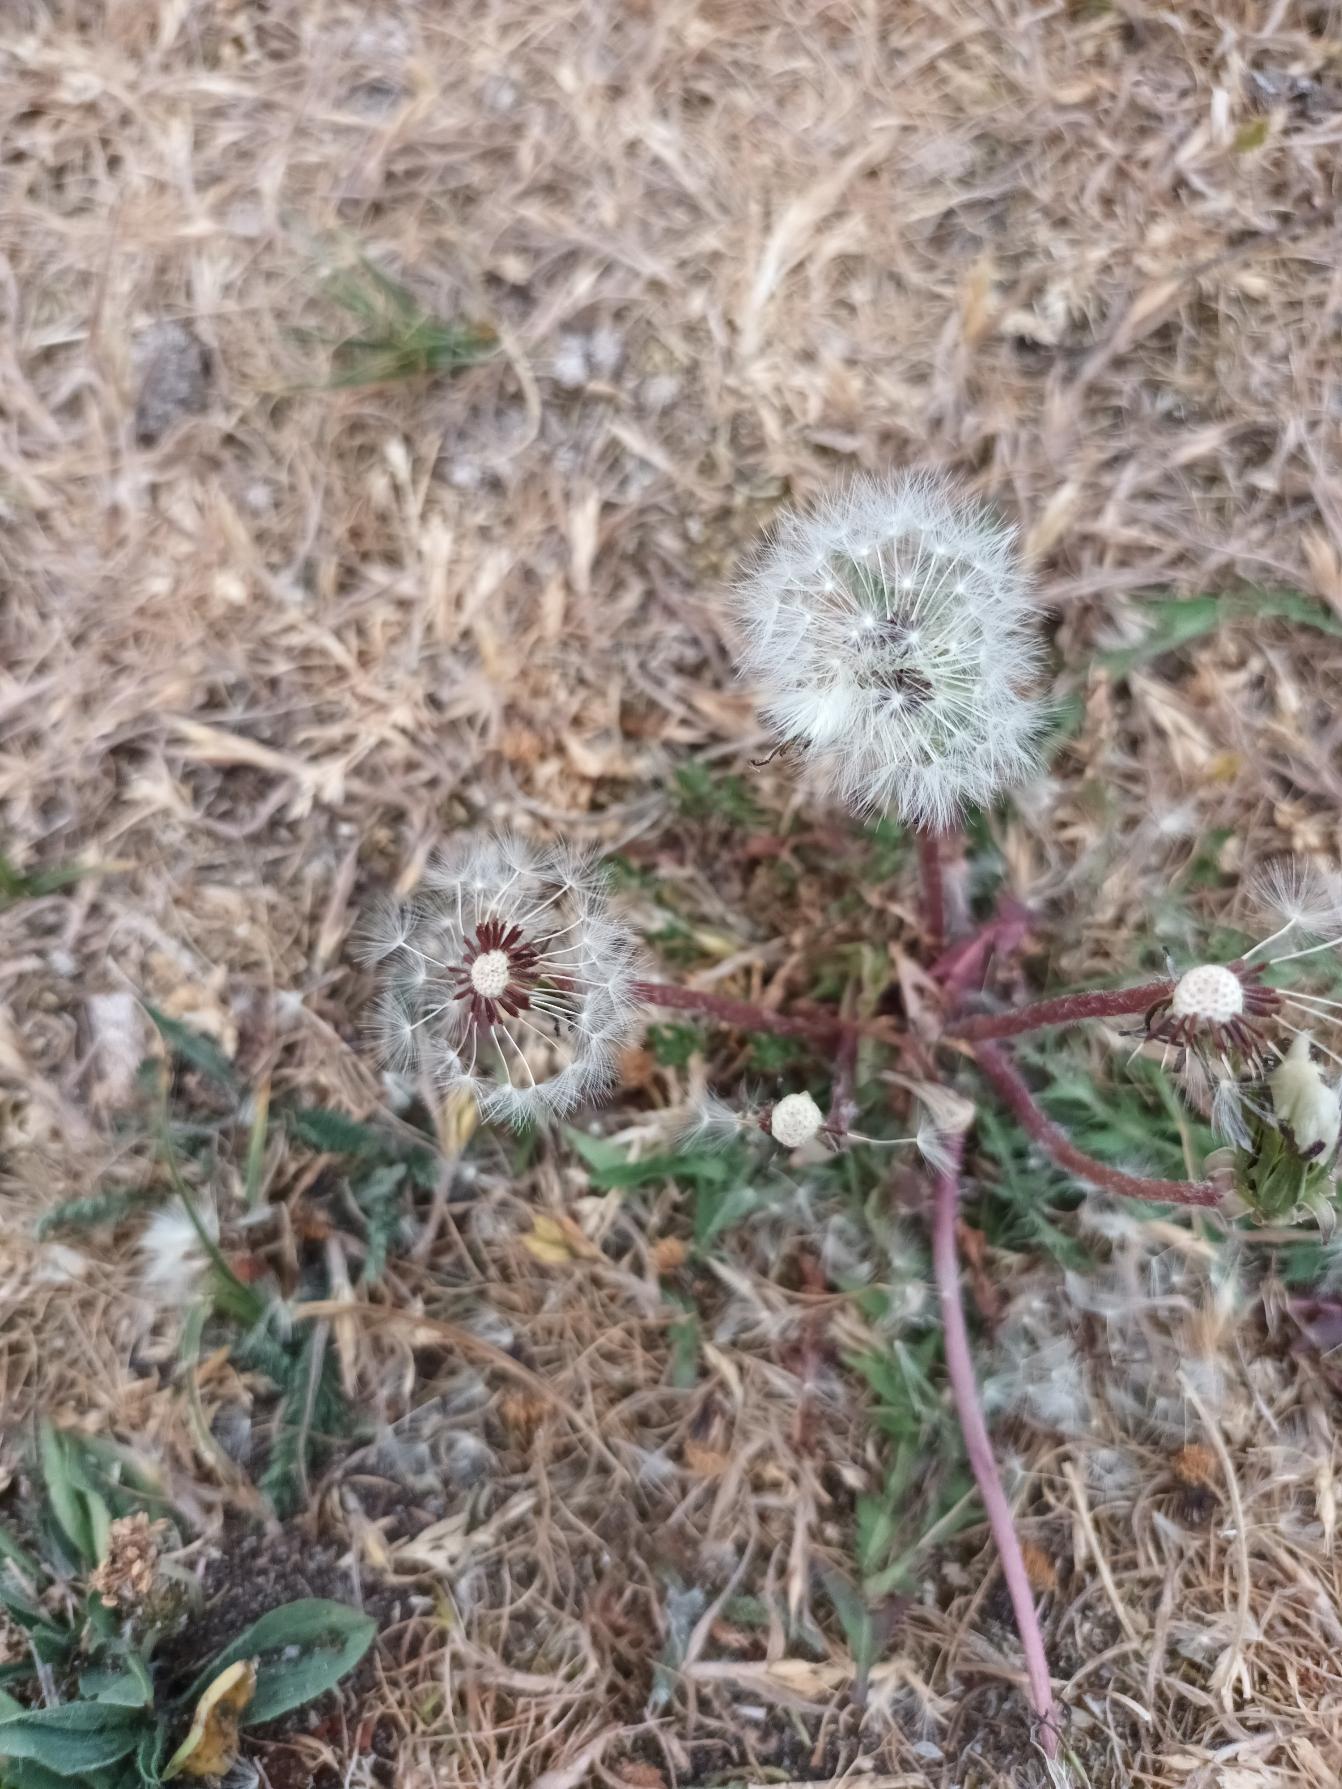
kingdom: Plantae
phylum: Tracheophyta
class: Magnoliopsida
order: Asterales
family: Asteraceae
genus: Taraxacum
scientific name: Taraxacum
